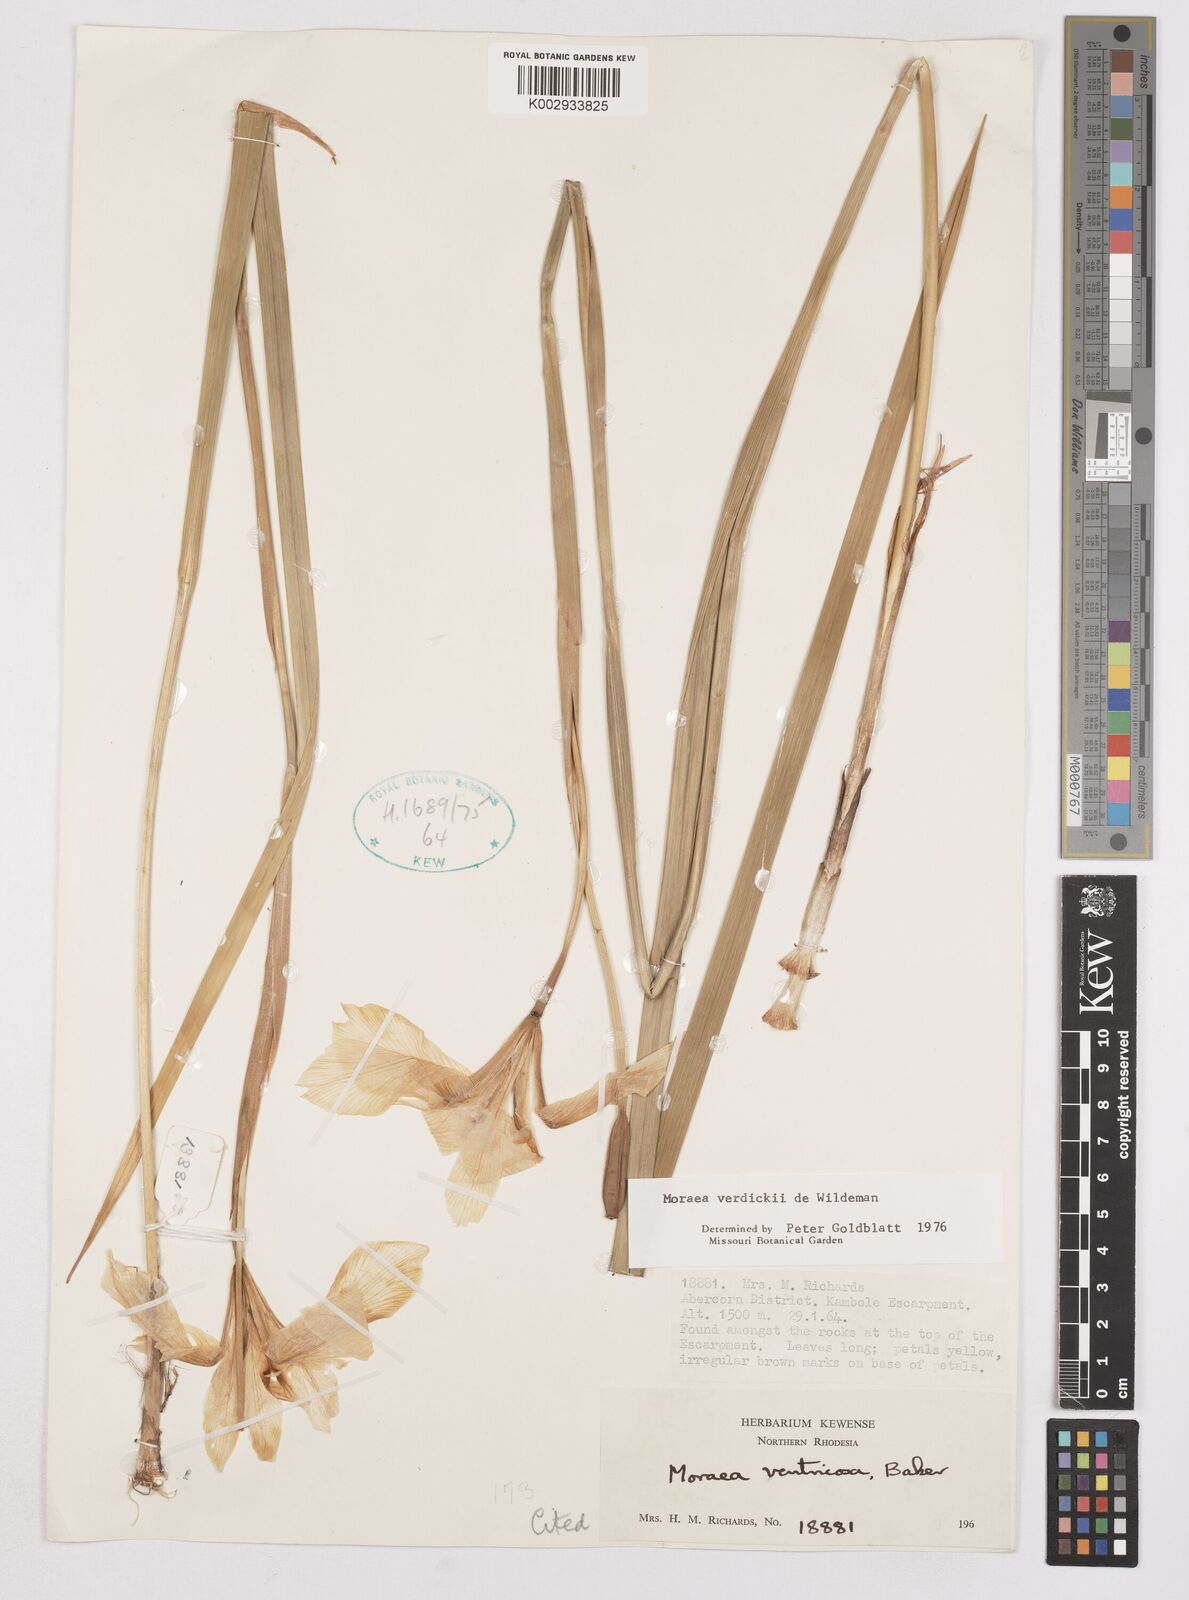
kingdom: Plantae
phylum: Tracheophyta
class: Liliopsida
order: Asparagales
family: Iridaceae
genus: Moraea
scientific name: Moraea verdickii
